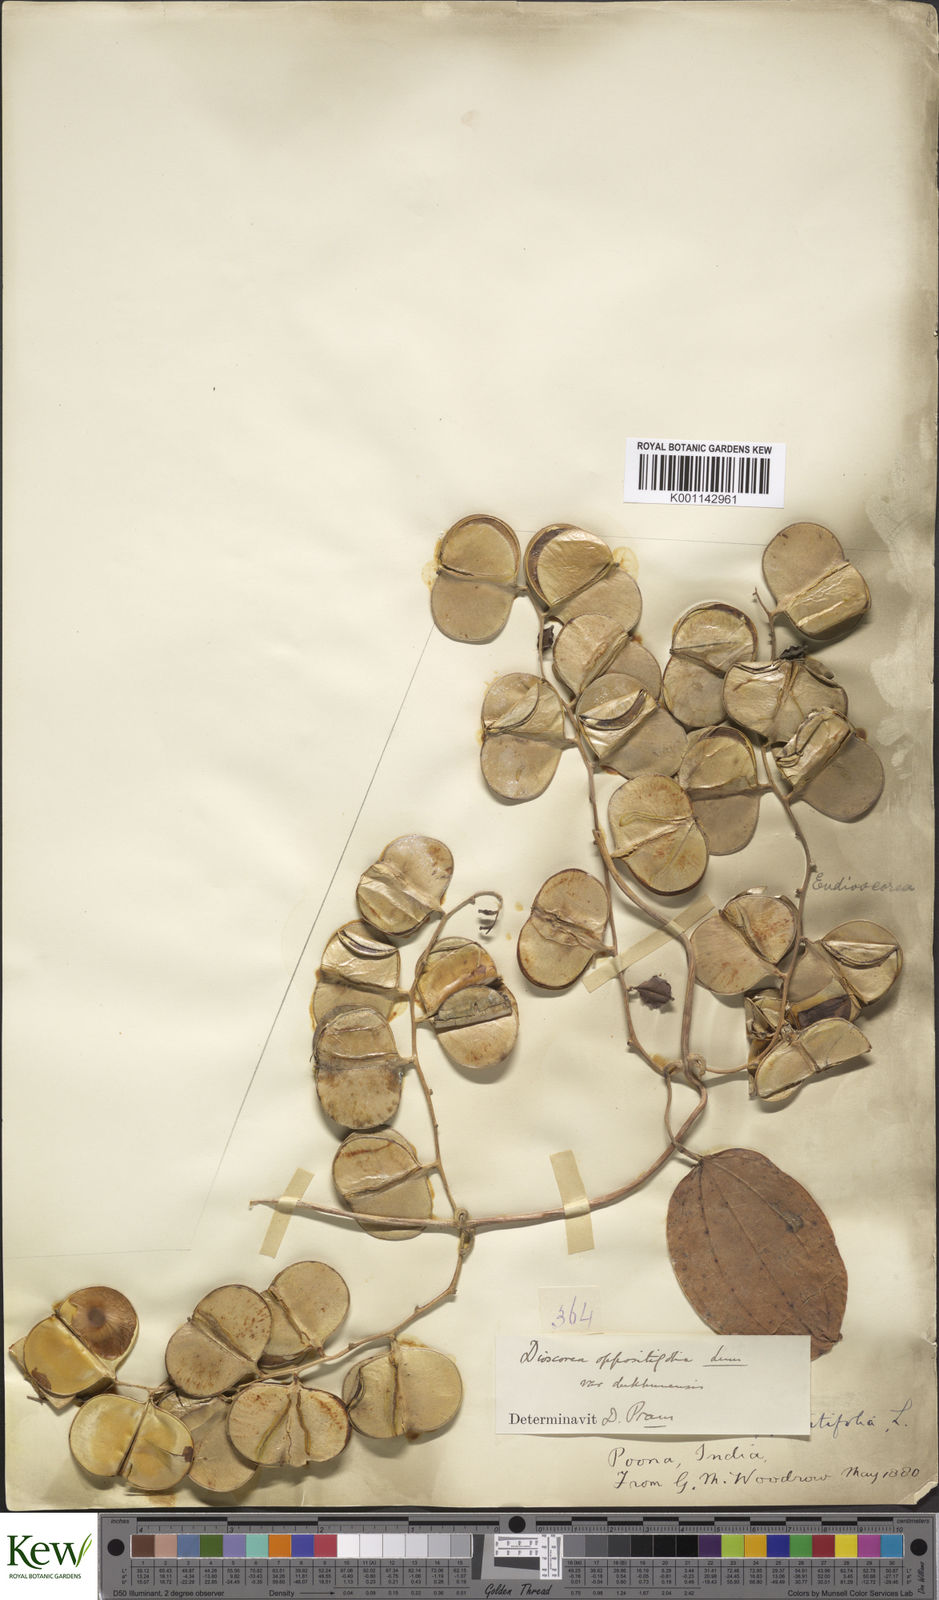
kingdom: Plantae
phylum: Tracheophyta
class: Liliopsida
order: Dioscoreales
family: Dioscoreaceae
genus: Dioscorea
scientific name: Dioscorea oppositifolia
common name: Chinese yam
